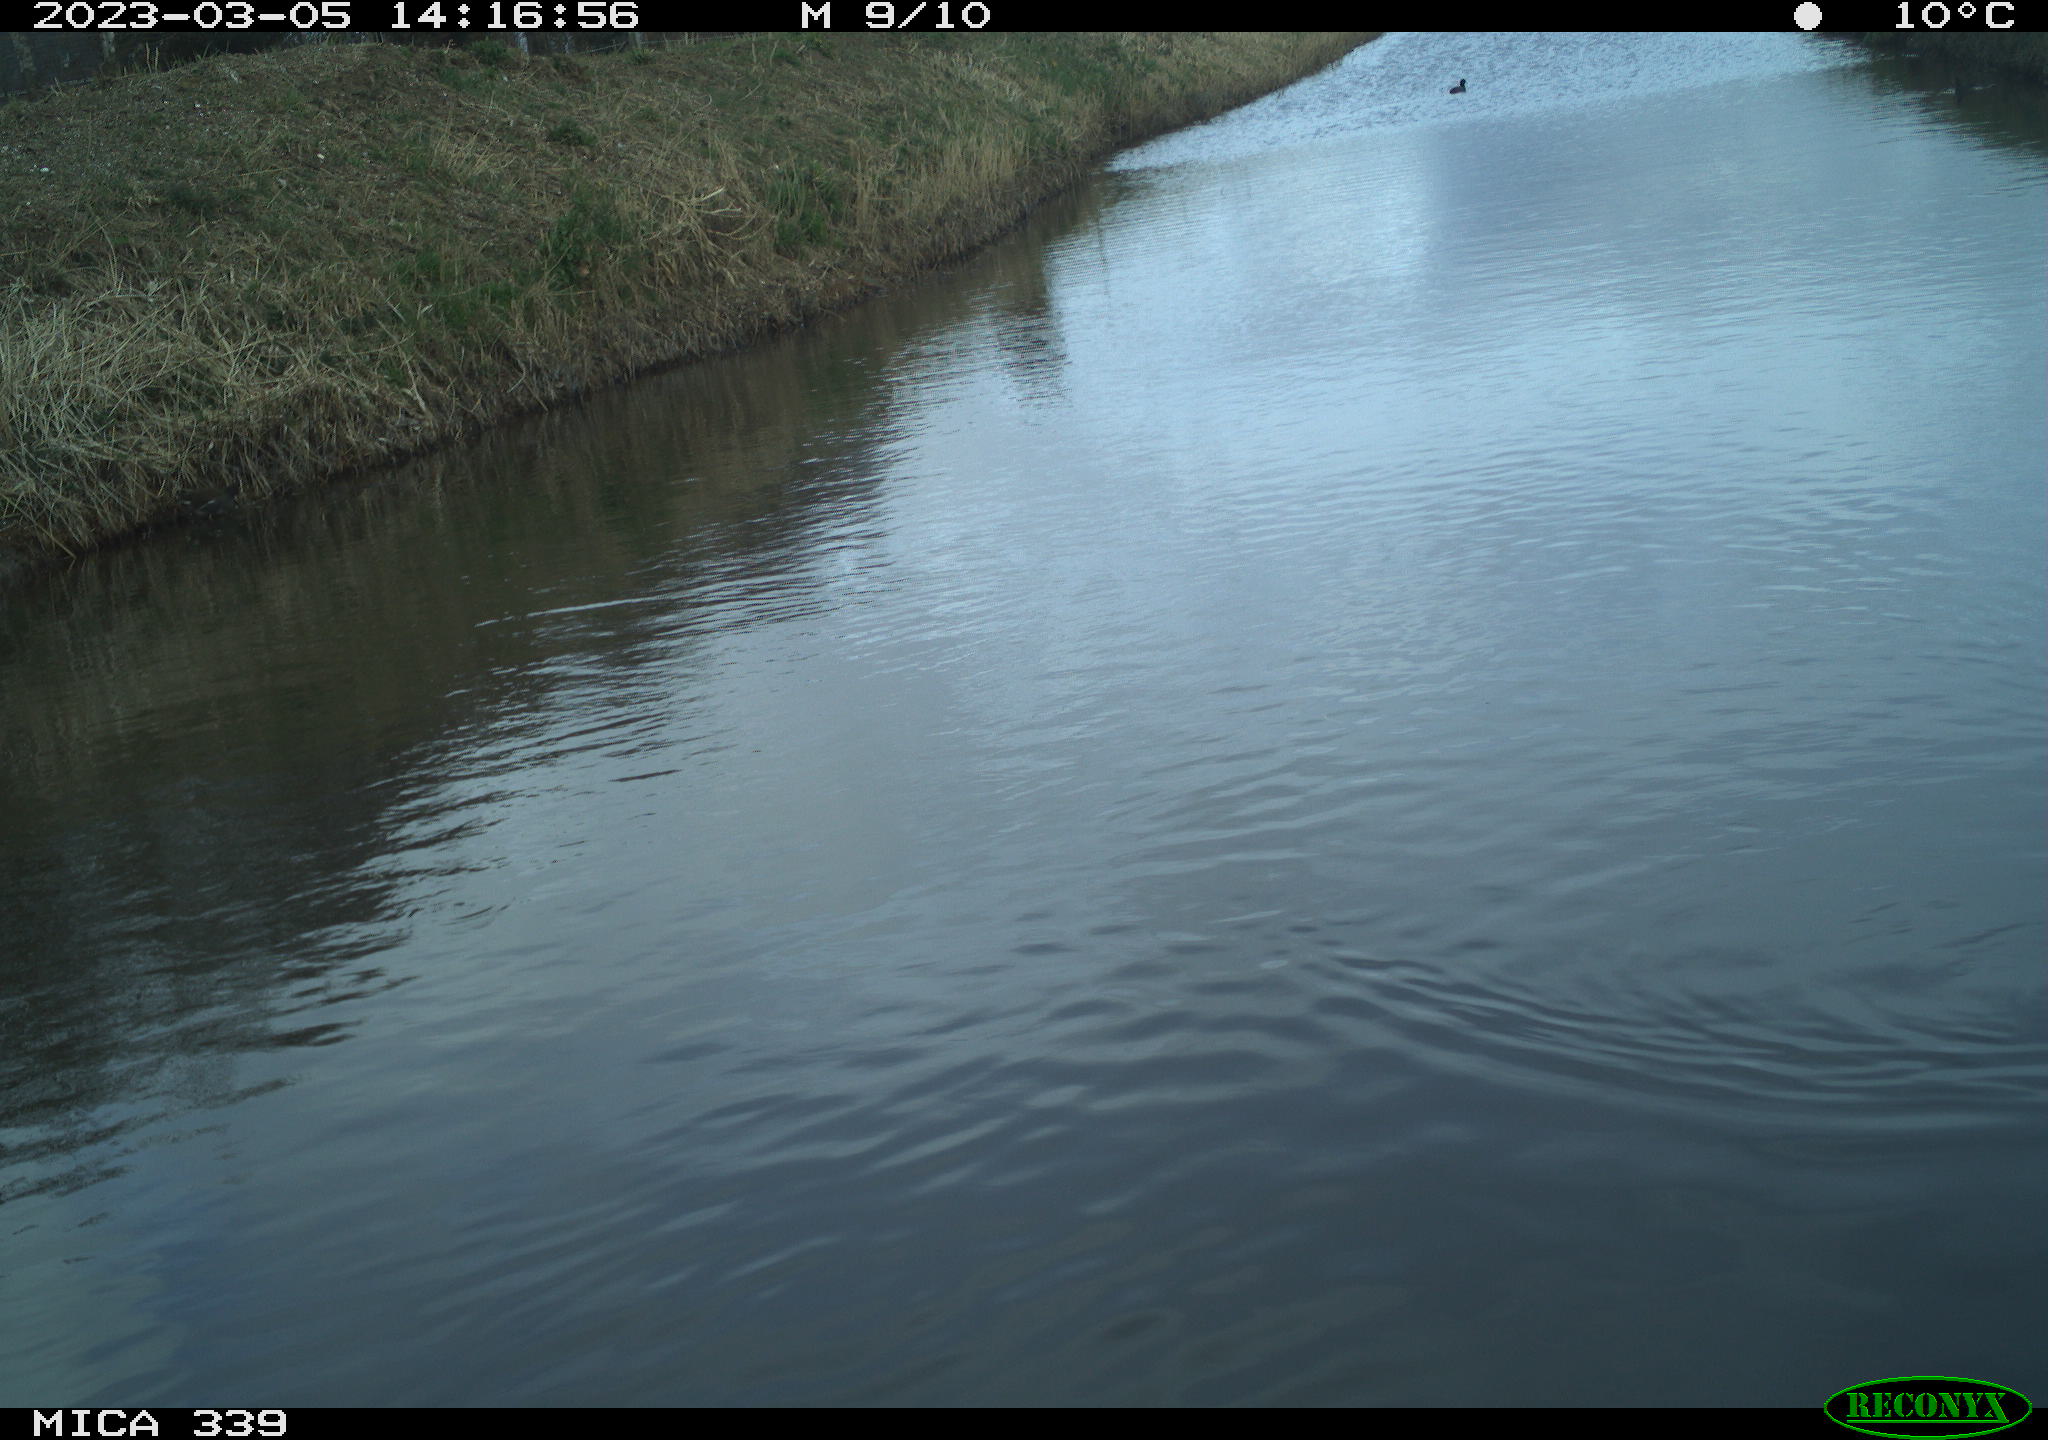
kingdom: Animalia
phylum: Chordata
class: Aves
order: Gruiformes
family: Rallidae
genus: Gallinula
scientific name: Gallinula chloropus
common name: Common moorhen
